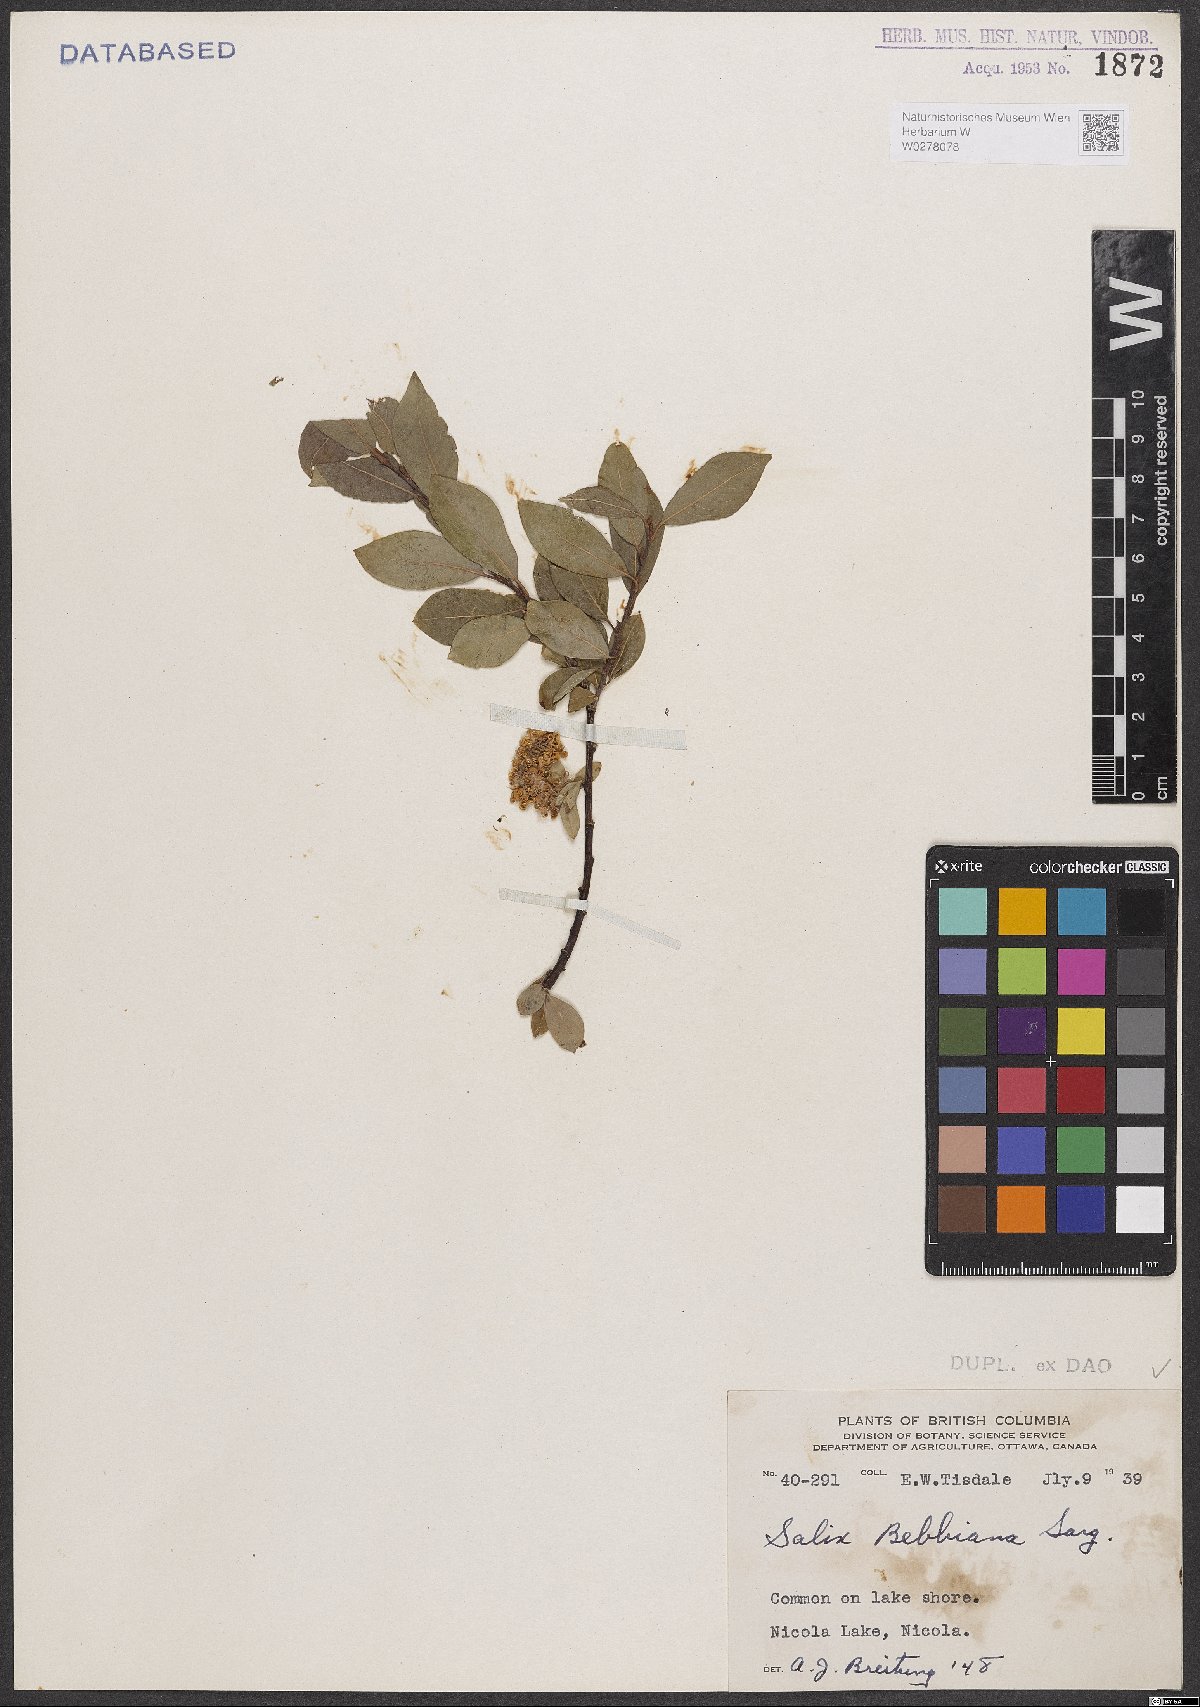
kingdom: Plantae
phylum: Tracheophyta
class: Magnoliopsida
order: Malpighiales
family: Salicaceae
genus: Salix
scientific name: Salix bebbiana
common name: Bebb's willow
